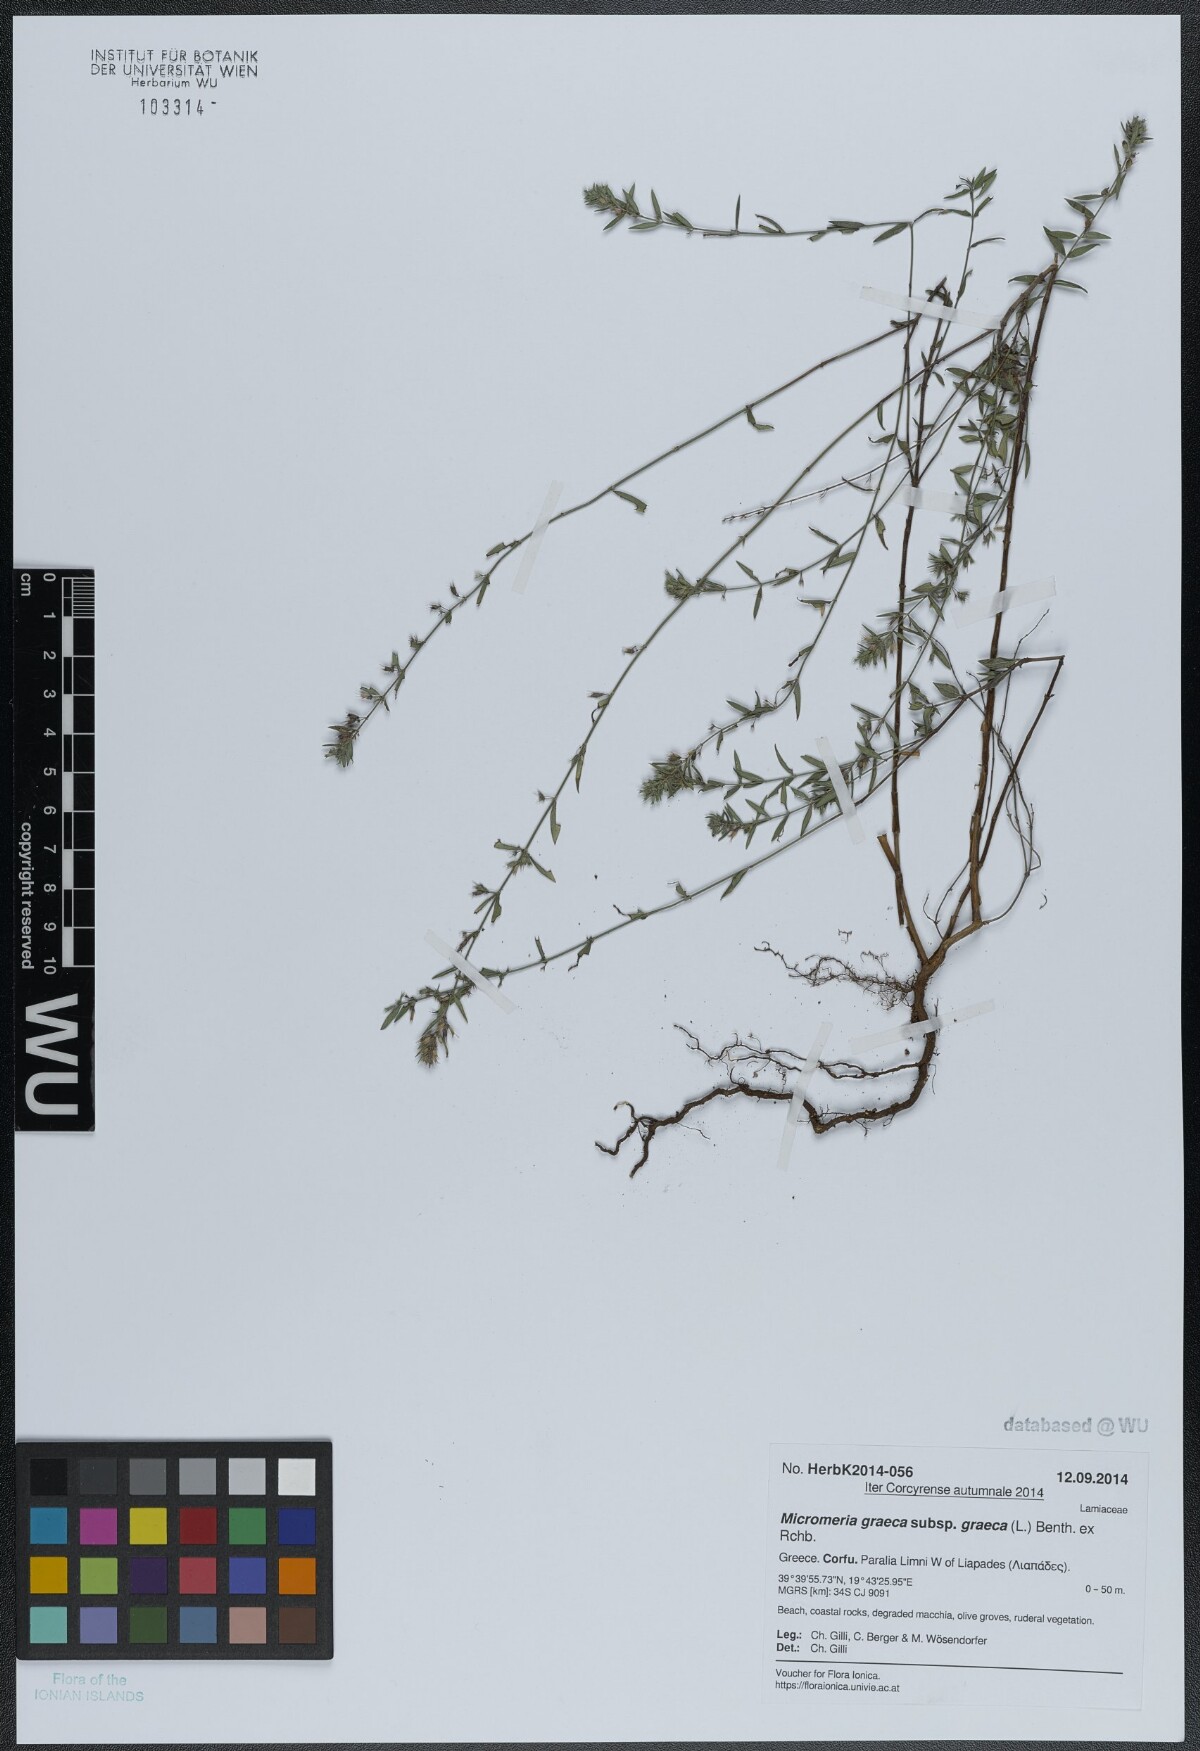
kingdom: Plantae
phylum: Tracheophyta
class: Magnoliopsida
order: Lamiales
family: Lamiaceae
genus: Micromeria
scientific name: Micromeria graeca
